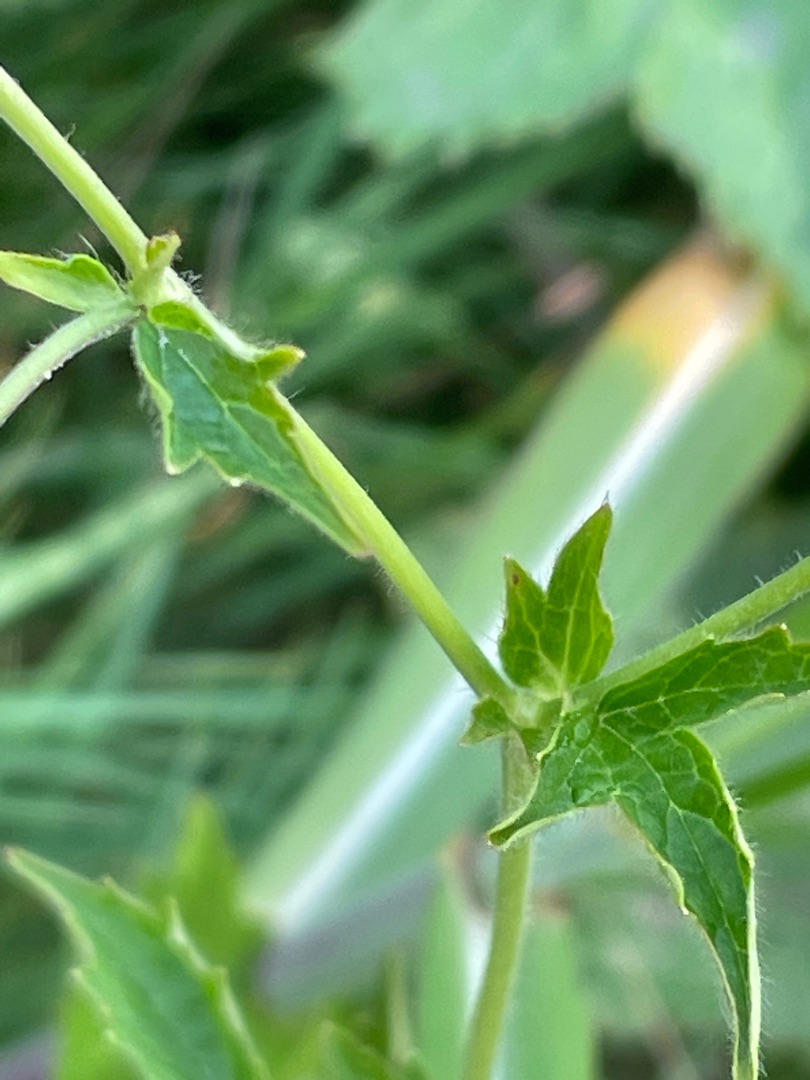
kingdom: Plantae
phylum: Tracheophyta
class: Magnoliopsida
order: Rosales
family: Rosaceae
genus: Geum
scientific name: Geum urbanum
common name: Feber-nellikerod
